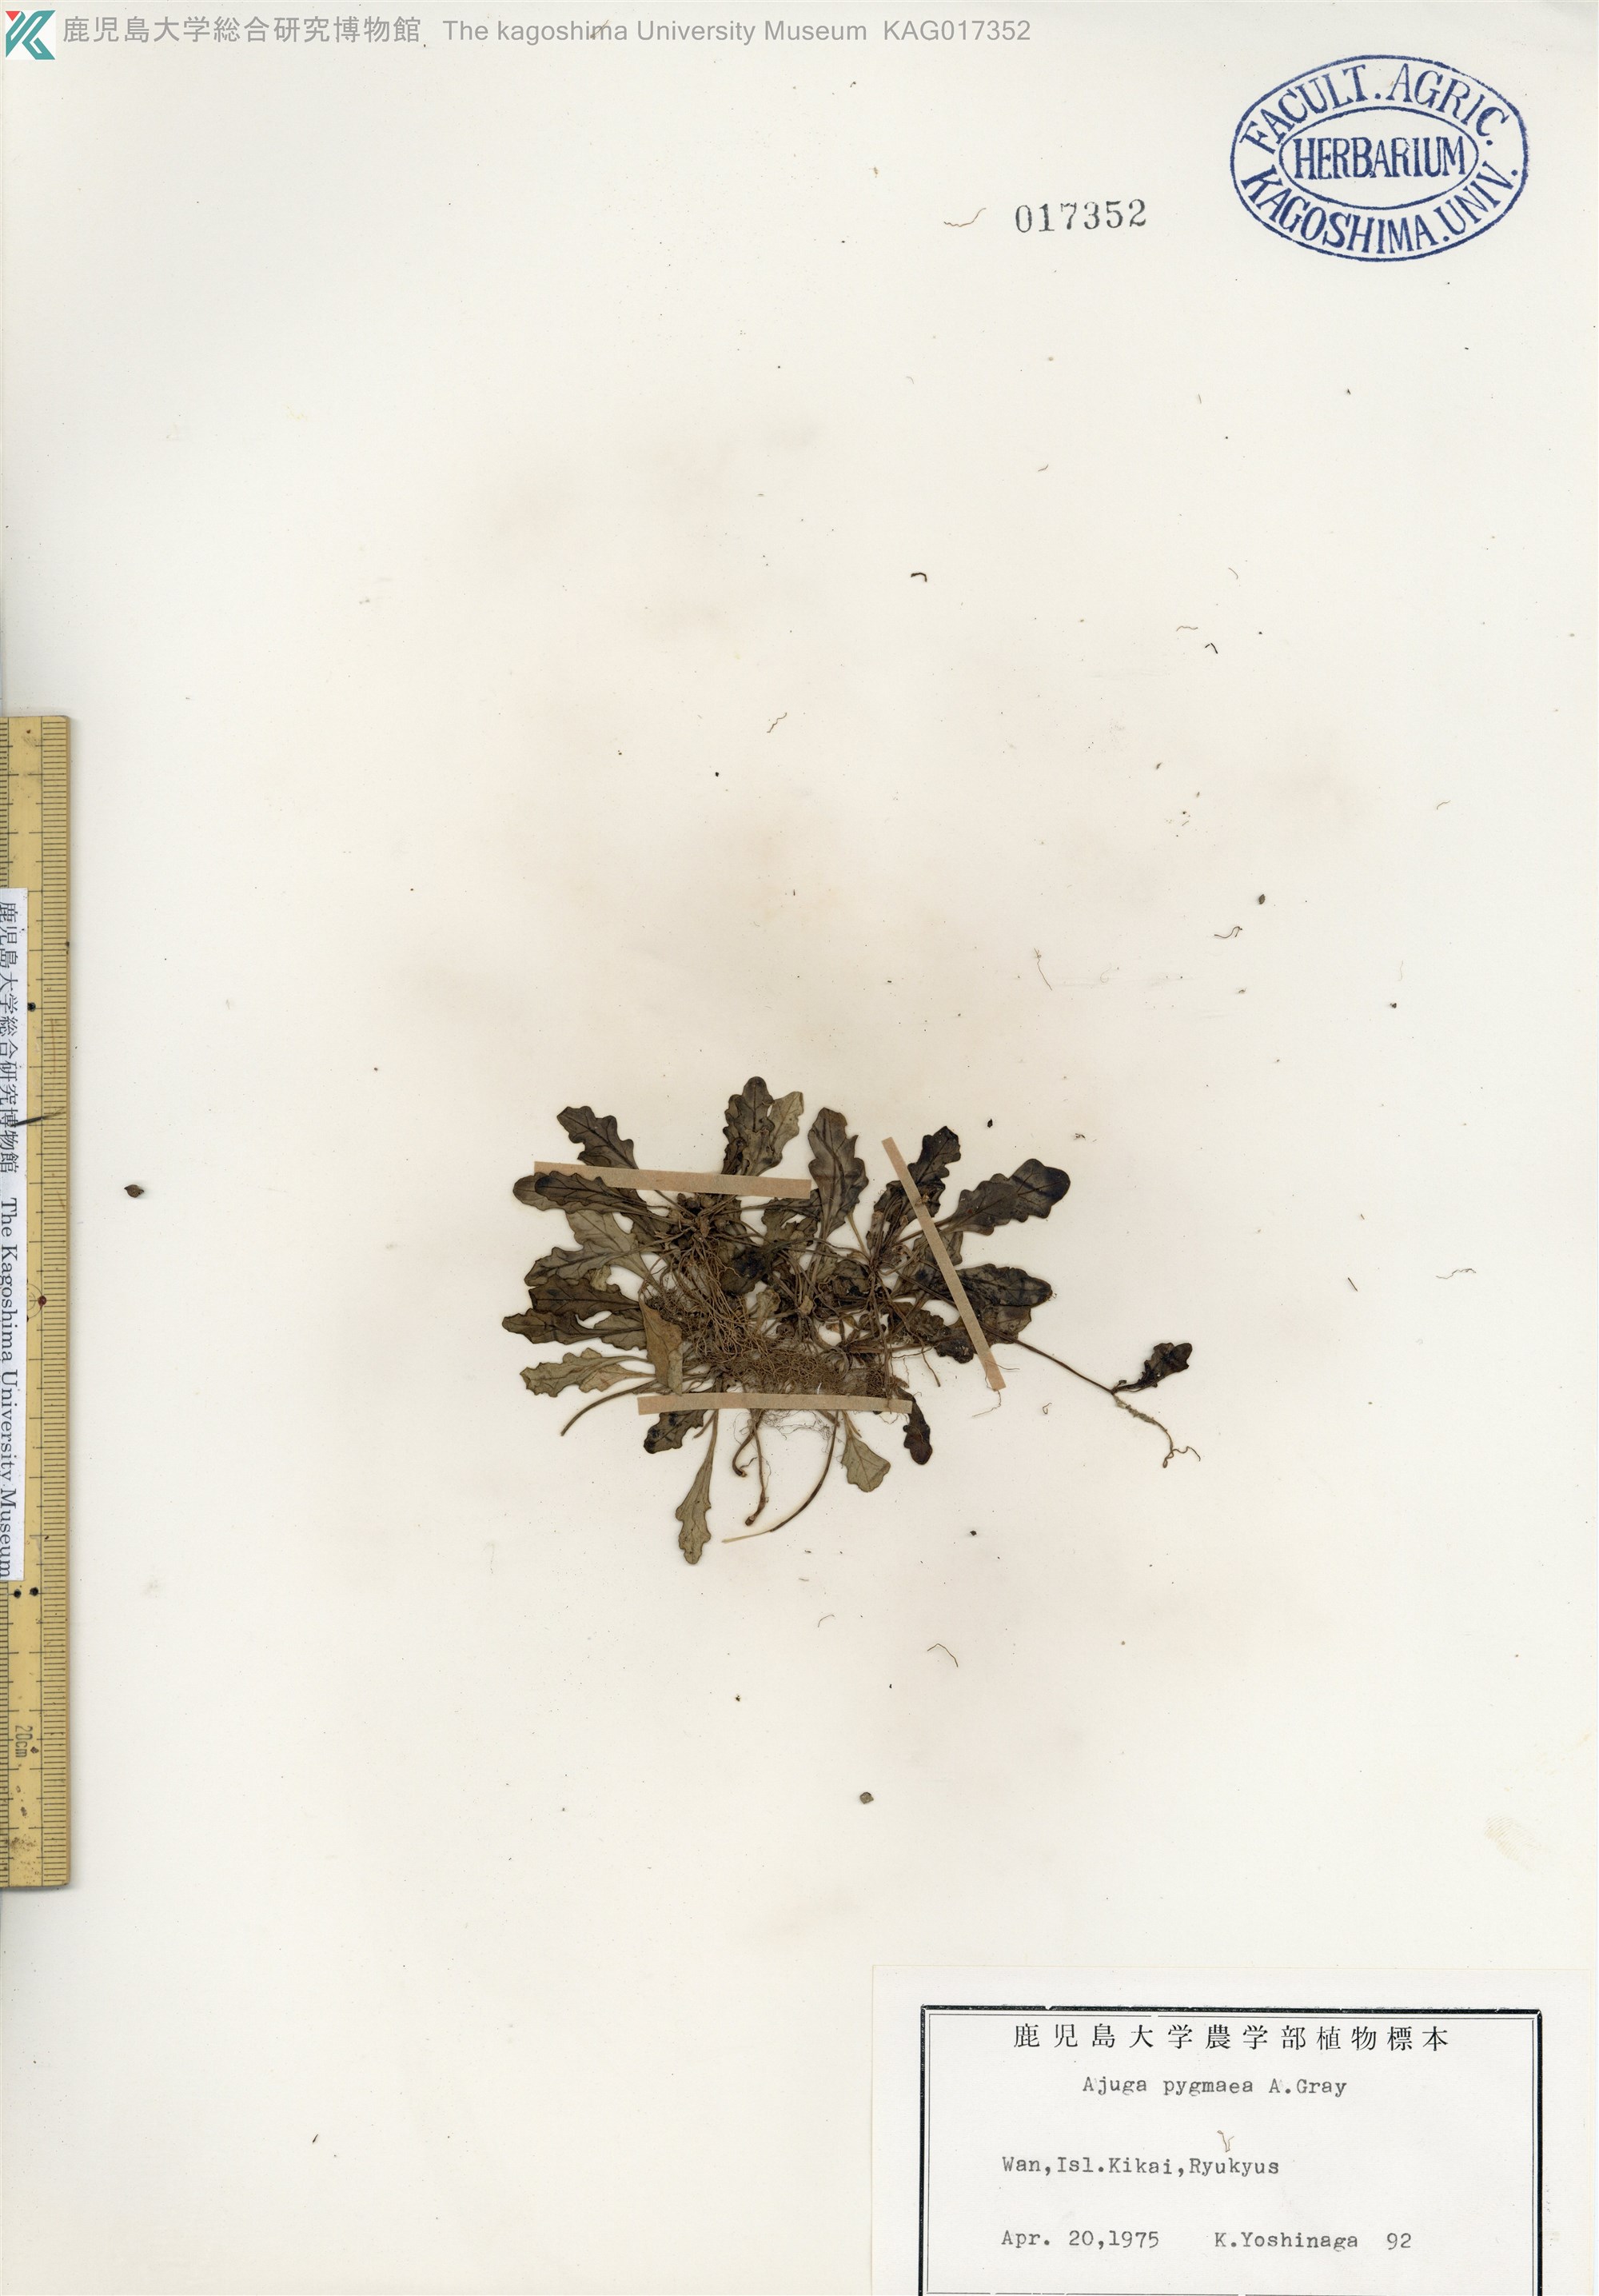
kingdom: Plantae
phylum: Tracheophyta
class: Magnoliopsida
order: Lamiales
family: Lamiaceae
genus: Ajuga
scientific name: Ajuga pygmaea
